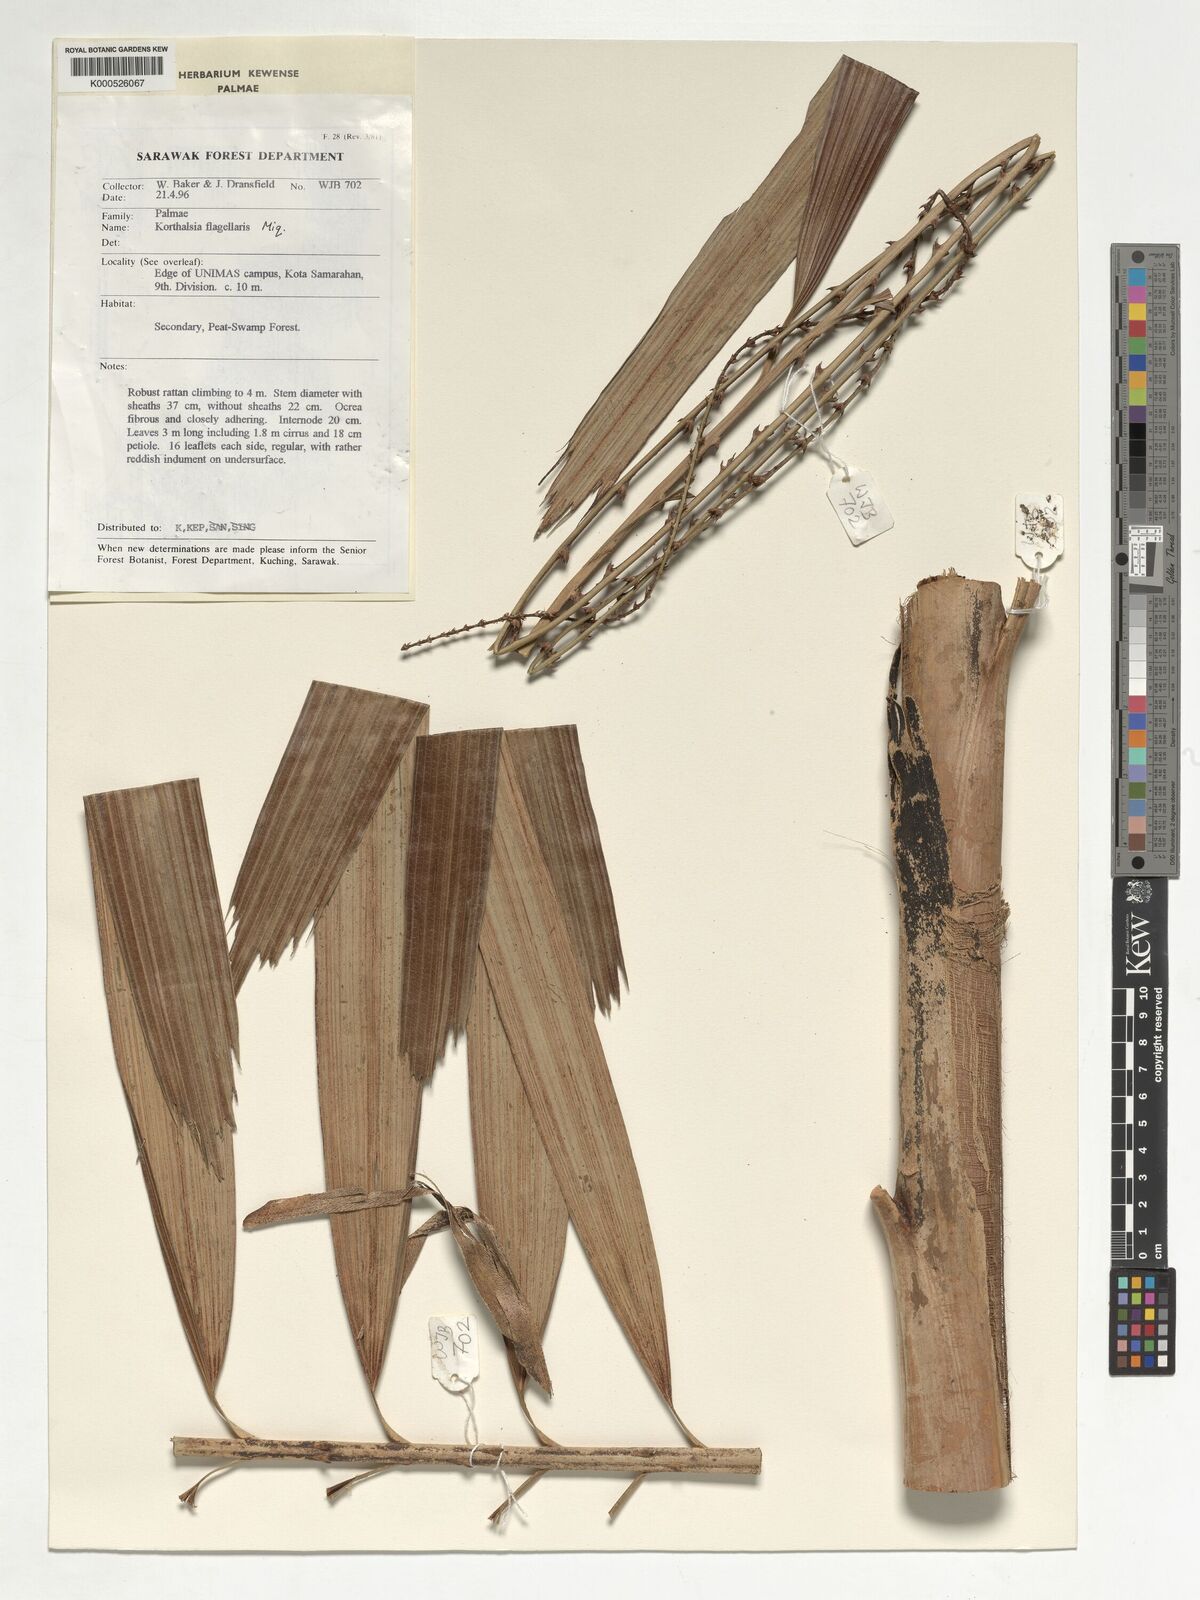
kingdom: Plantae
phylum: Tracheophyta
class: Liliopsida
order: Arecales
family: Arecaceae
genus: Korthalsia
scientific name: Korthalsia flagellaris
